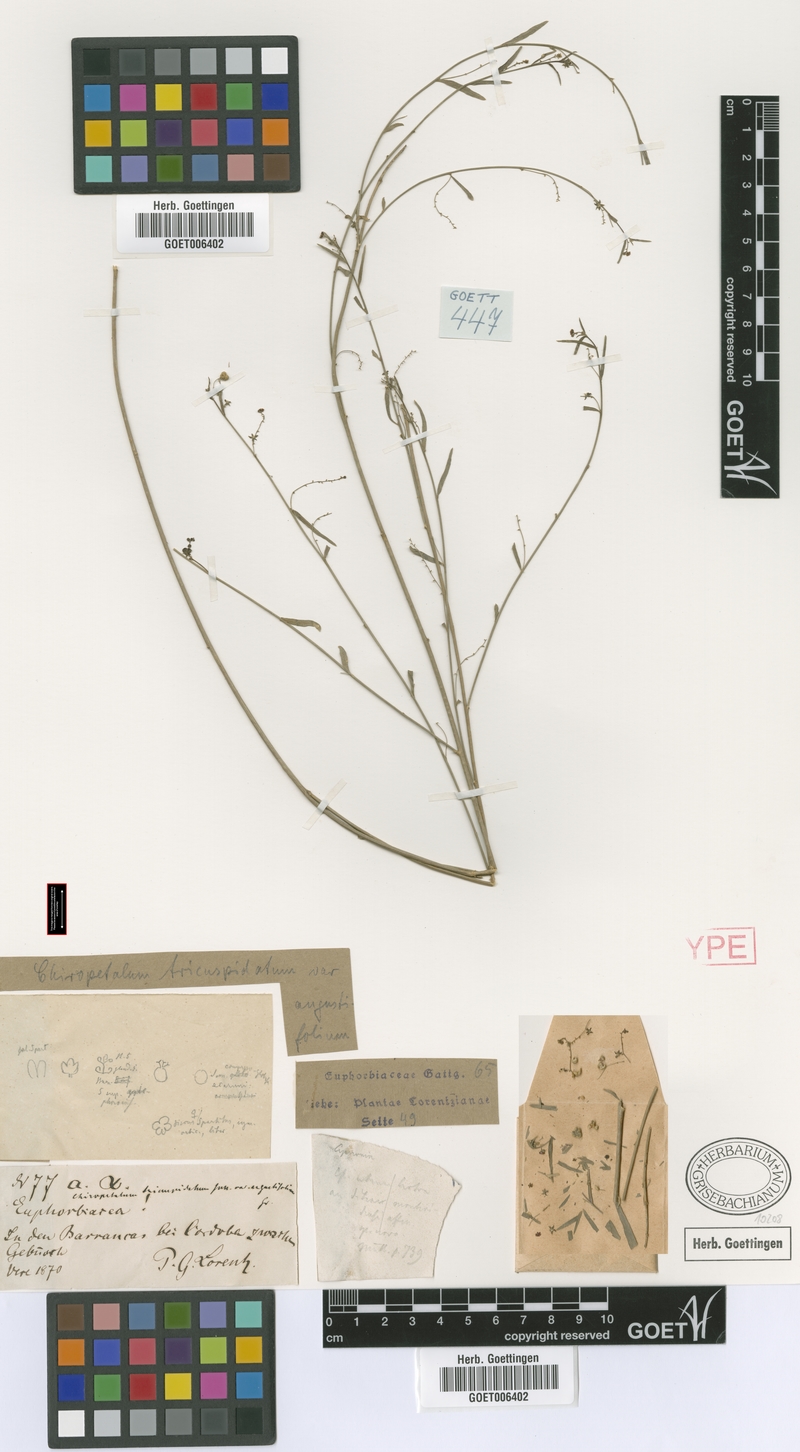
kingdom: Plantae
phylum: Tracheophyta
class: Magnoliopsida
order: Malpighiales
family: Euphorbiaceae
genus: Chiropetalum
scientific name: Chiropetalum tricuspidatum
